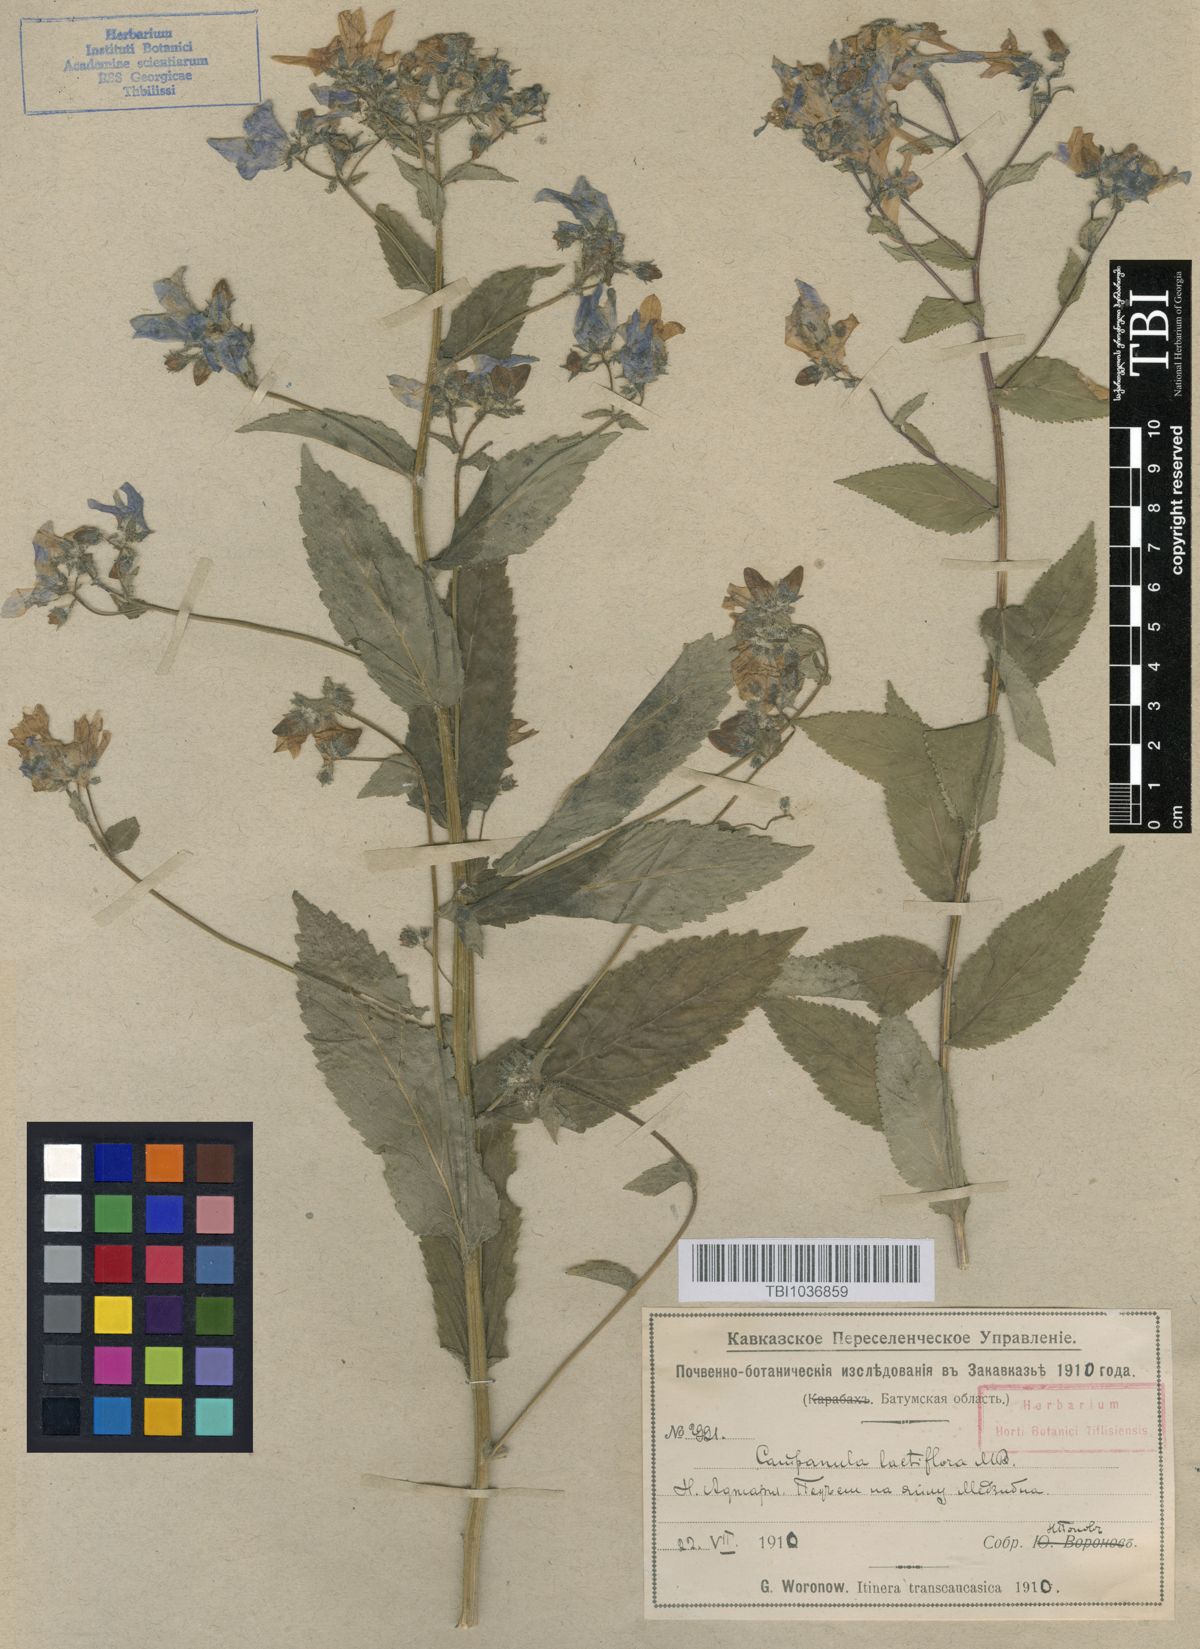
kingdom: Plantae
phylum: Tracheophyta
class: Magnoliopsida
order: Asterales
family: Campanulaceae
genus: Campanula
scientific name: Campanula lactiflora
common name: Milky bellflower
